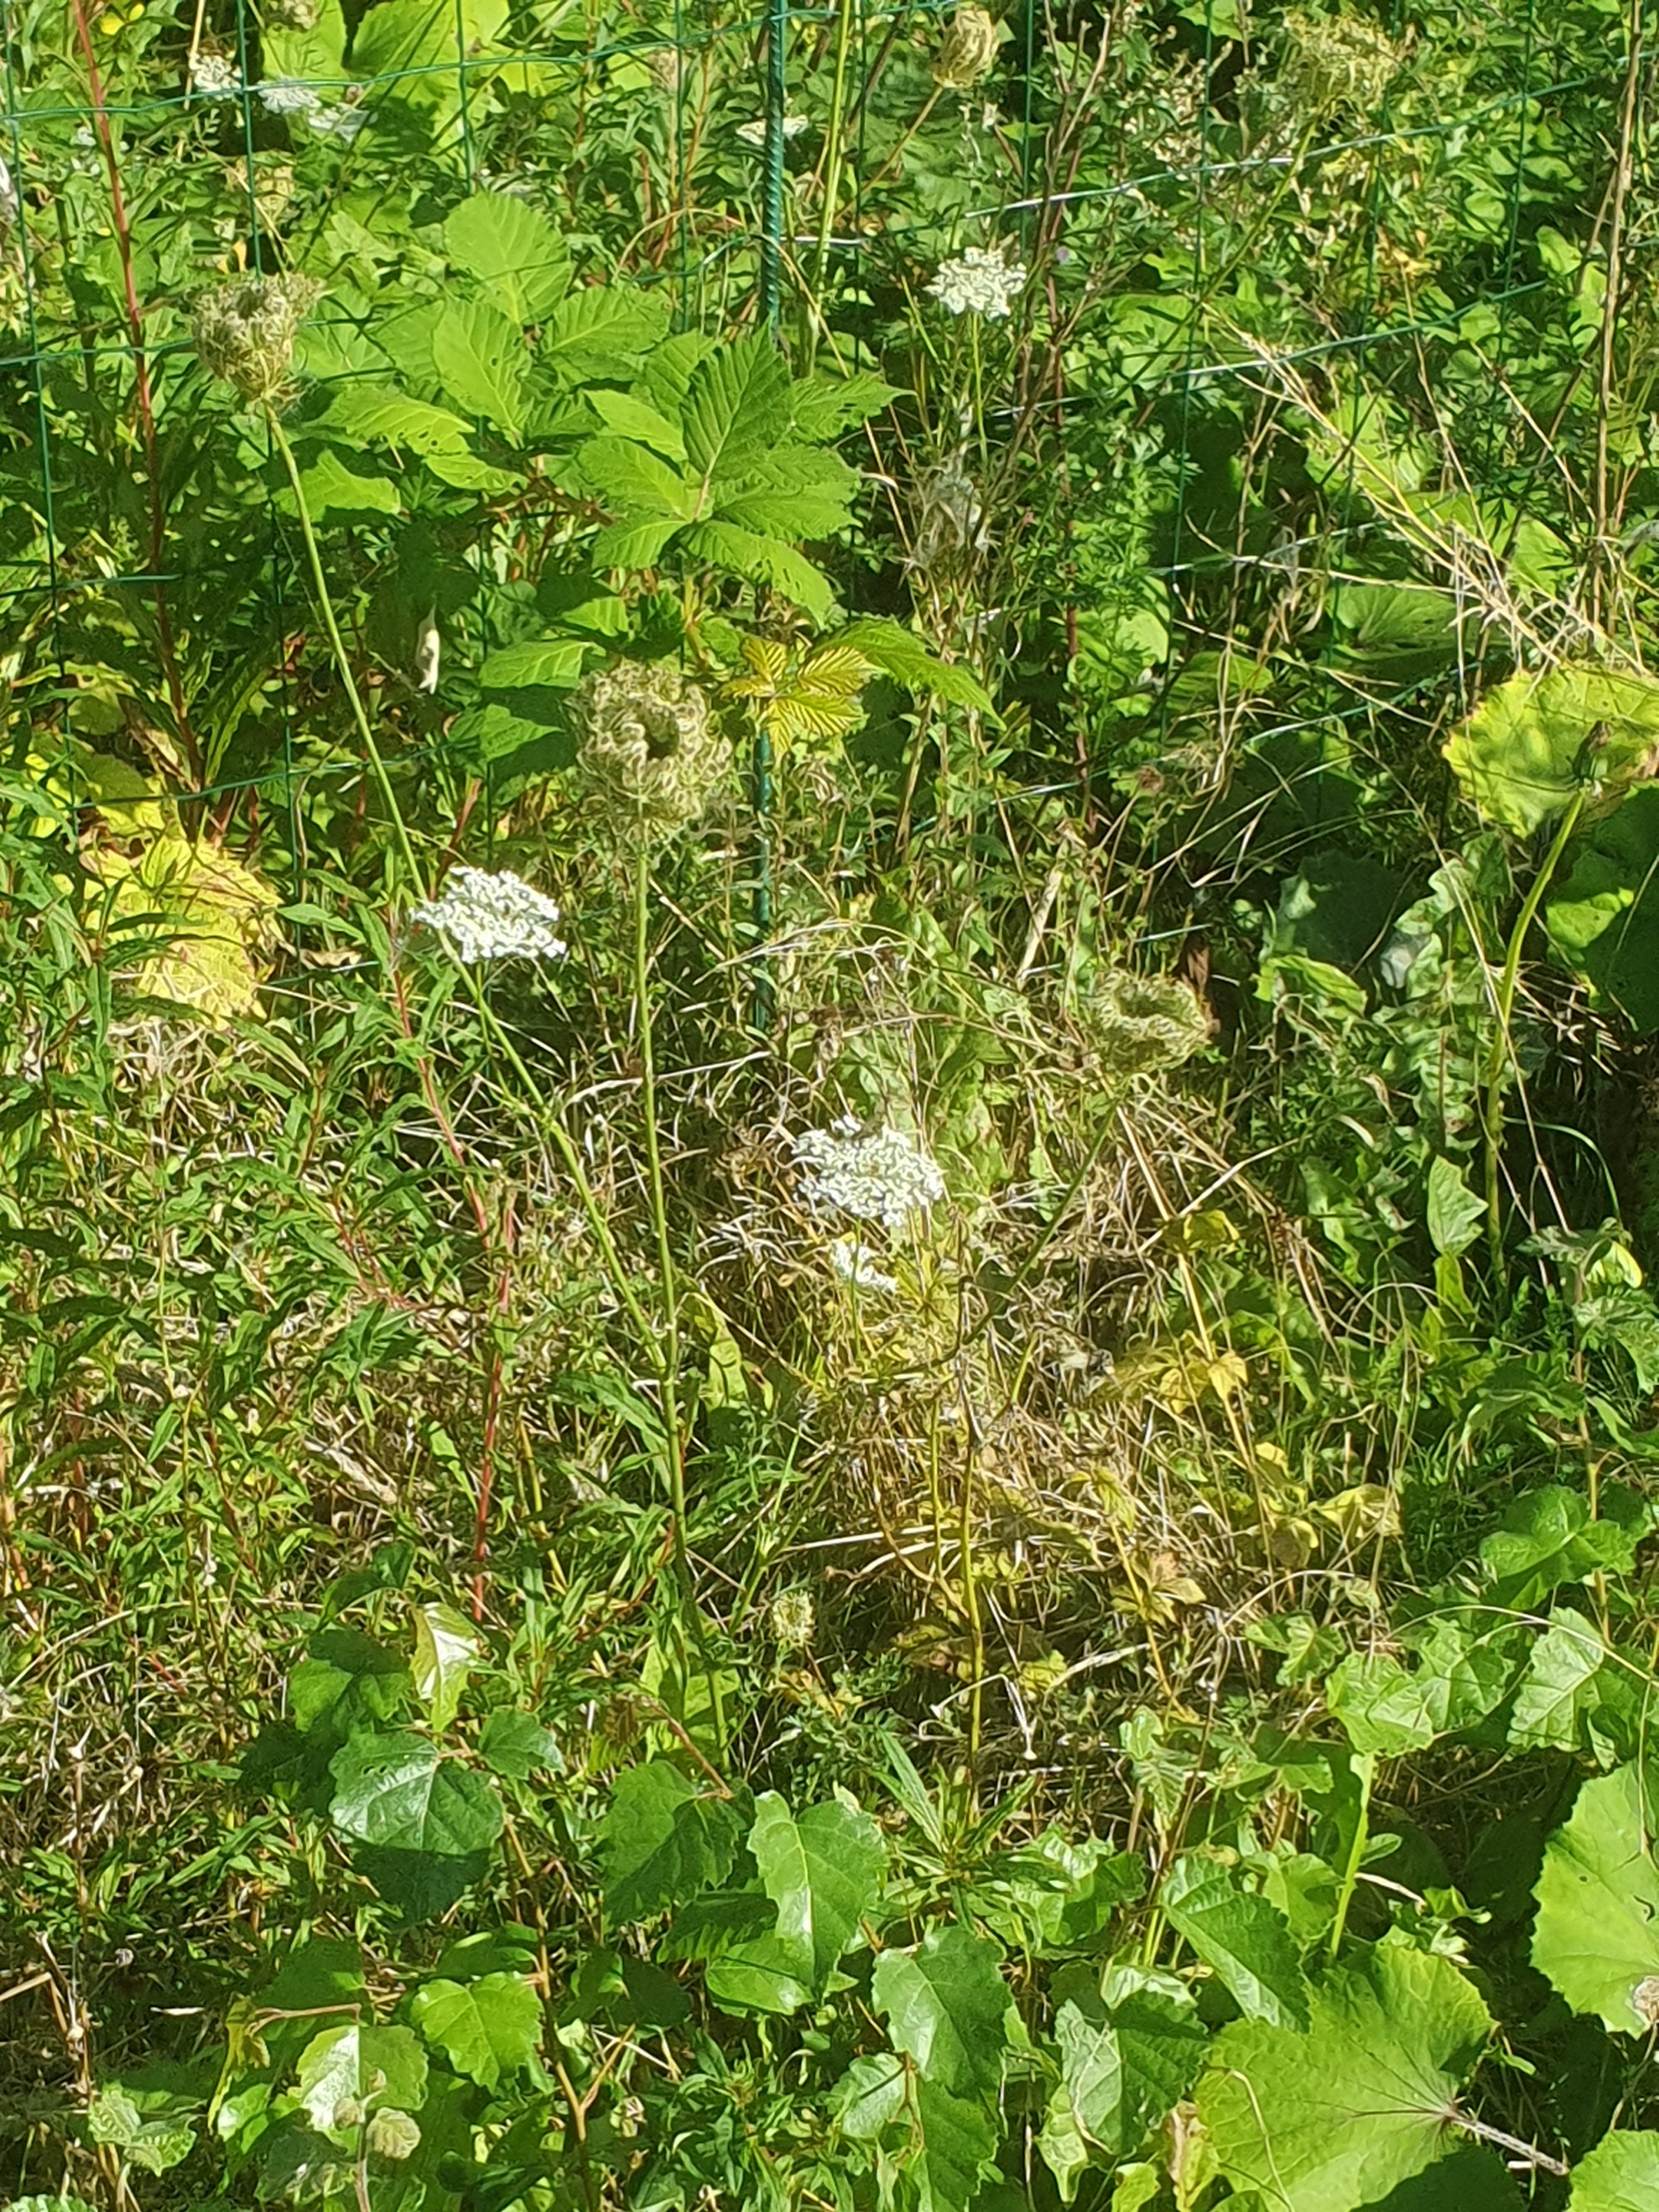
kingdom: Plantae
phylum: Tracheophyta
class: Magnoliopsida
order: Apiales
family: Apiaceae
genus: Daucus
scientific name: Daucus carota
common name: Vild gulerod
